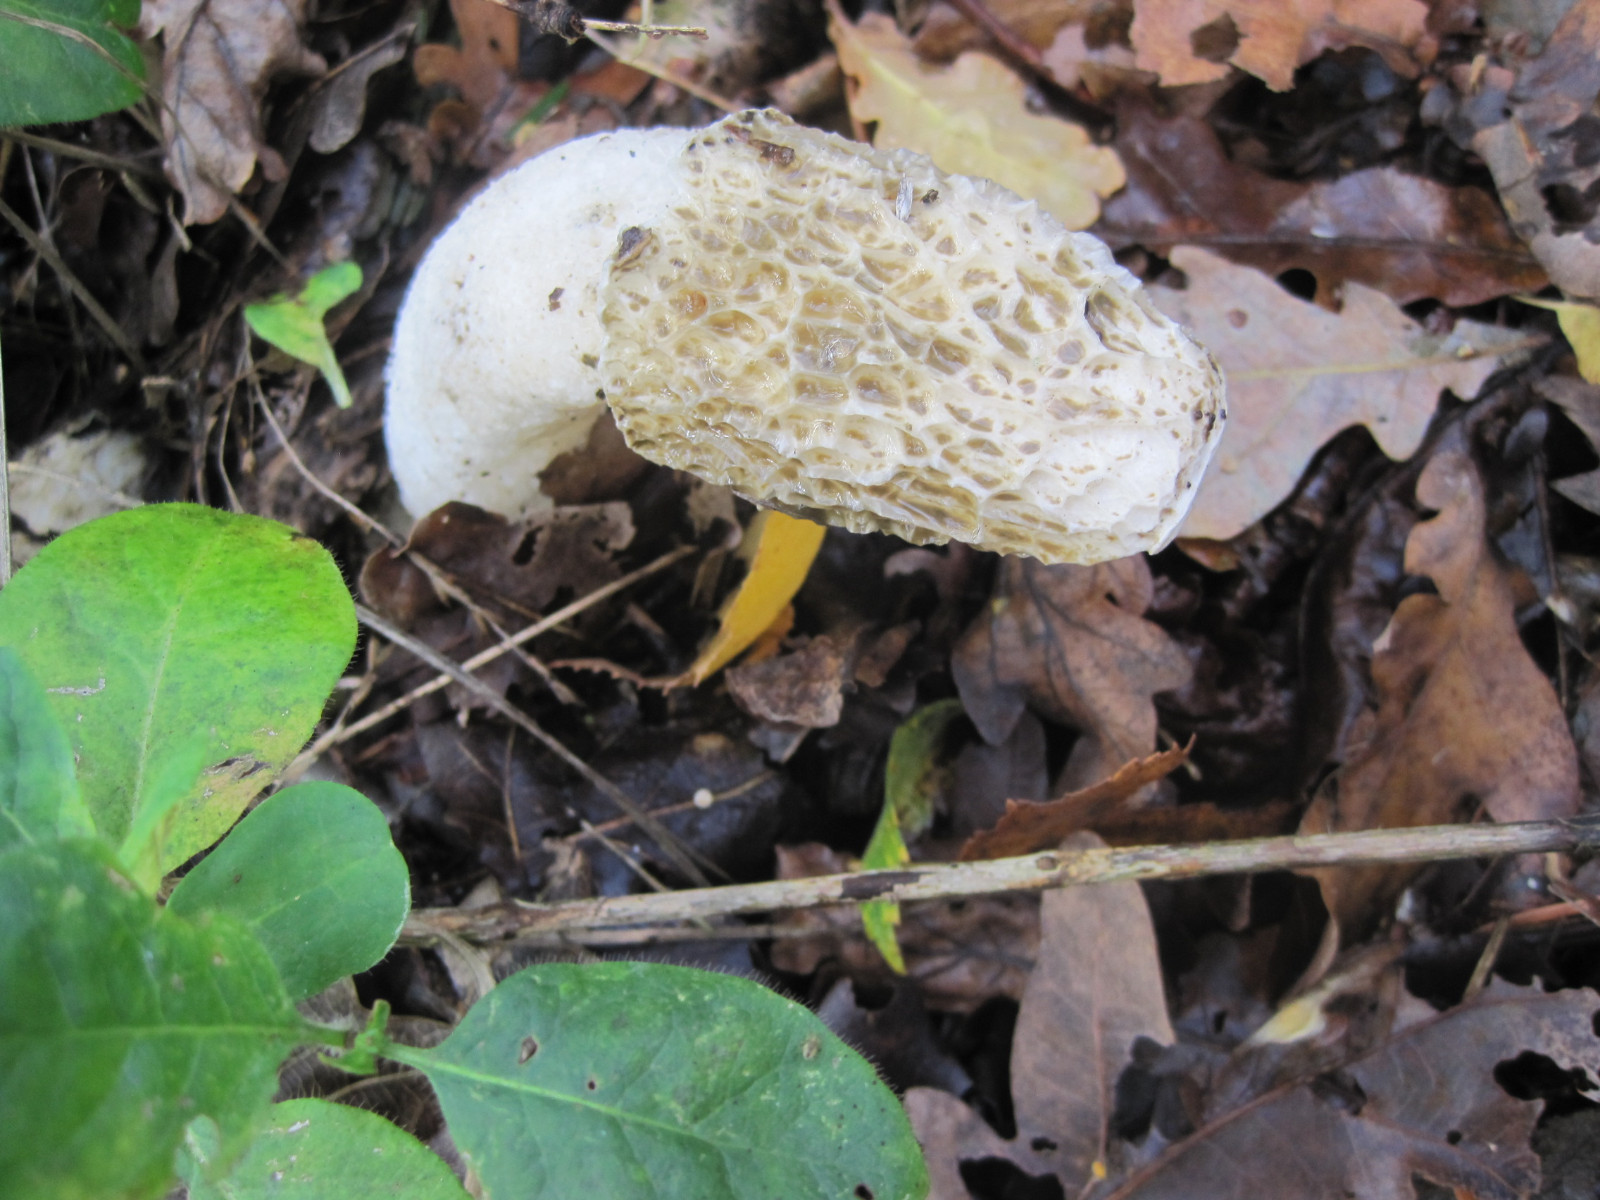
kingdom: Fungi
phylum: Basidiomycota
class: Agaricomycetes
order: Phallales
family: Phallaceae
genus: Phallus
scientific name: Phallus impudicus
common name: almindelig stinksvamp
